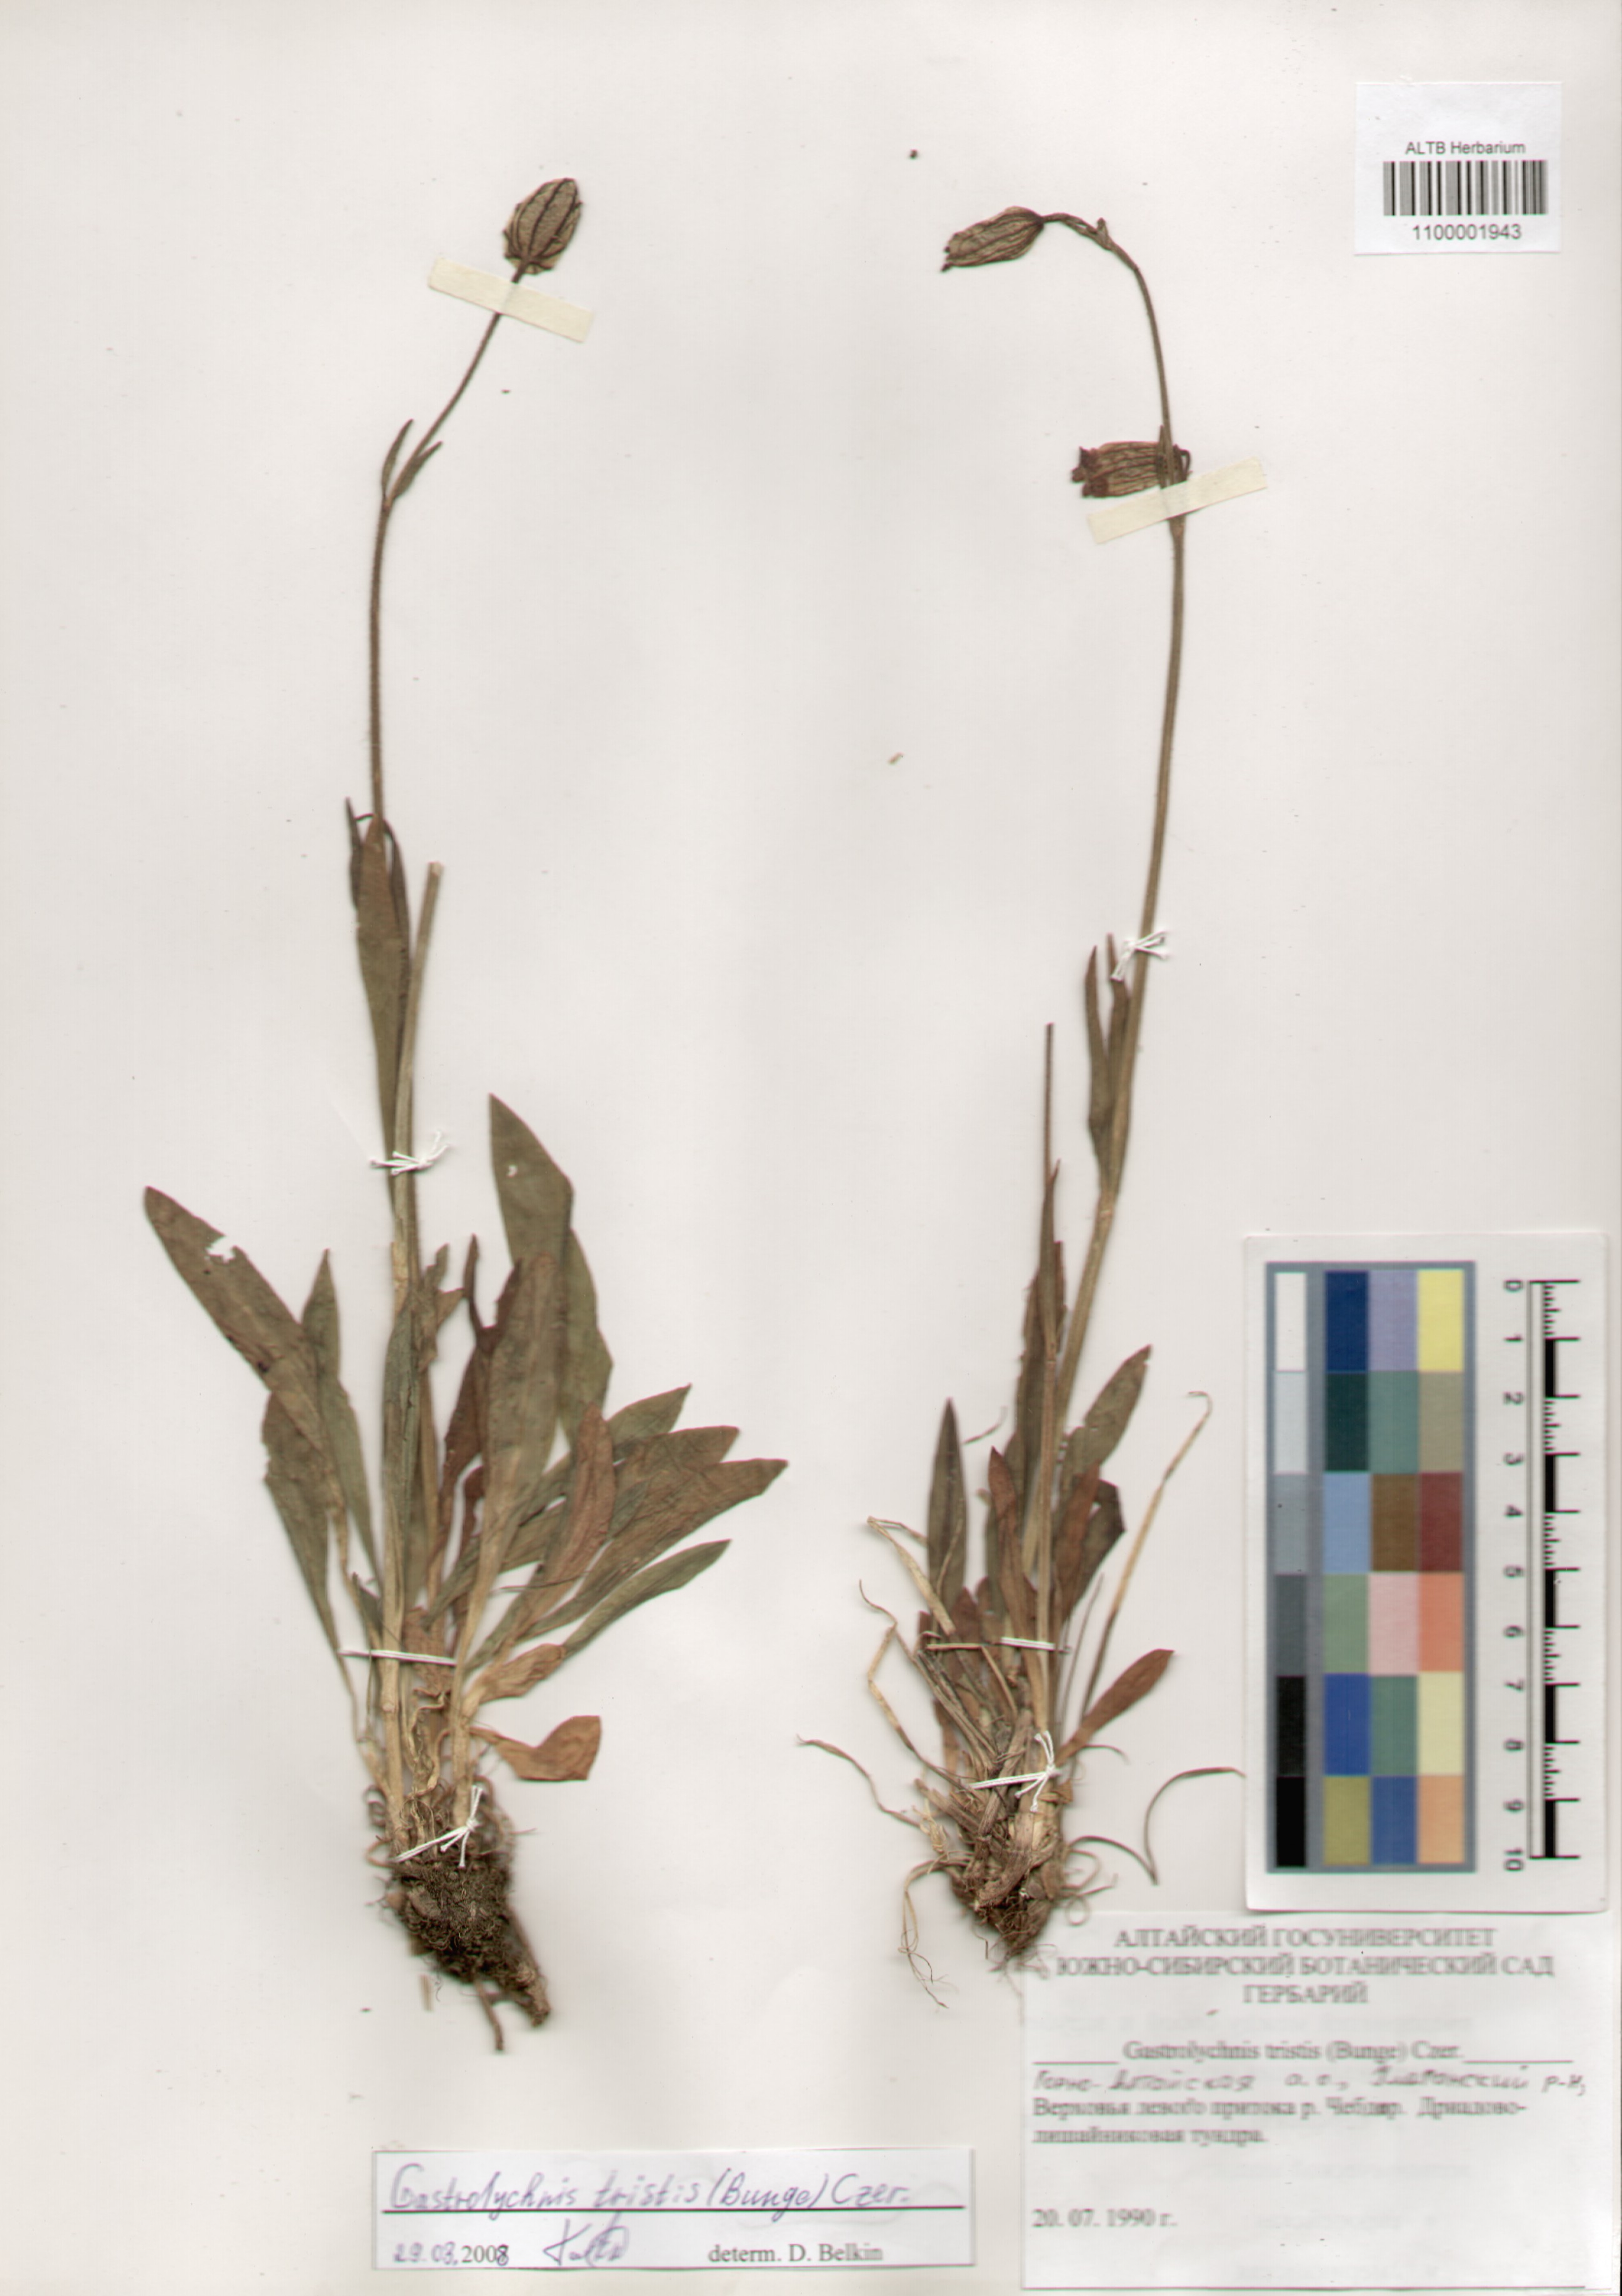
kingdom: Plantae
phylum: Tracheophyta
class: Magnoliopsida
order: Caryophyllales
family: Caryophyllaceae
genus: Silene
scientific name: Silene bungei
